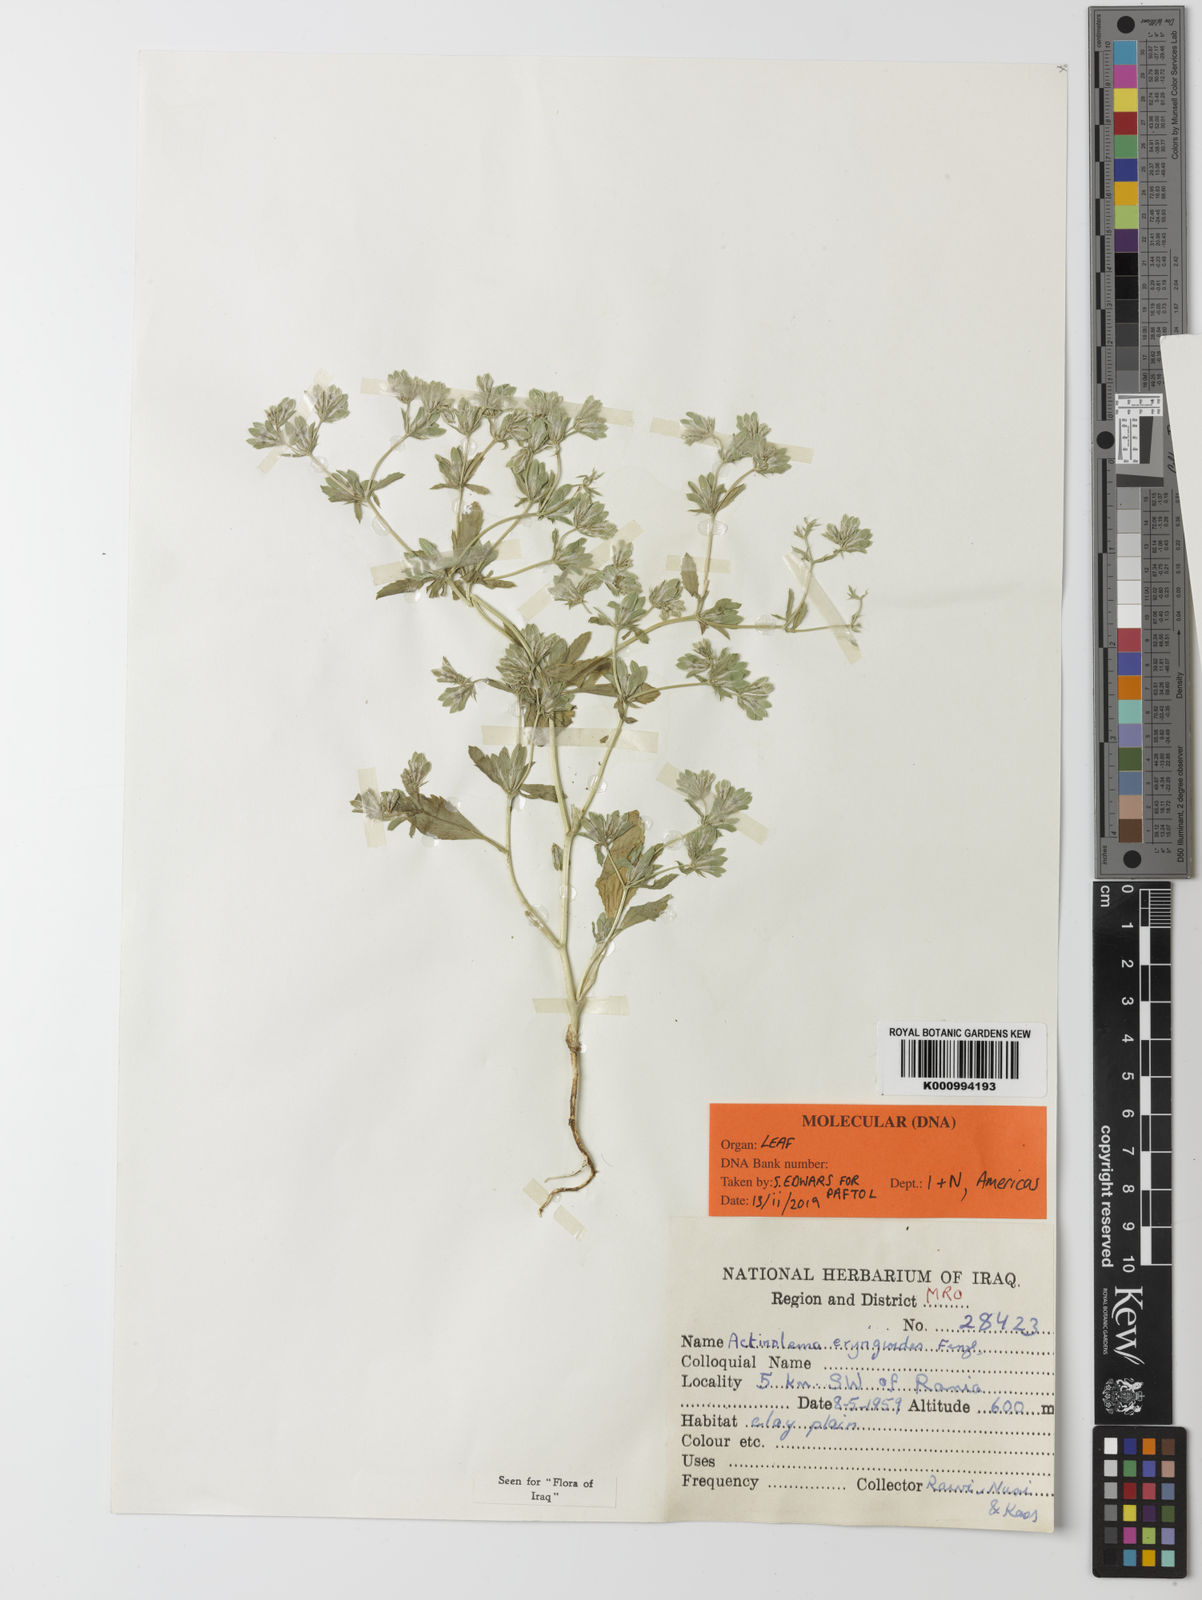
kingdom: Plantae
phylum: Tracheophyta
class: Magnoliopsida
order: Apiales
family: Apiaceae
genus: Actinolema
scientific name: Actinolema eryngioides
